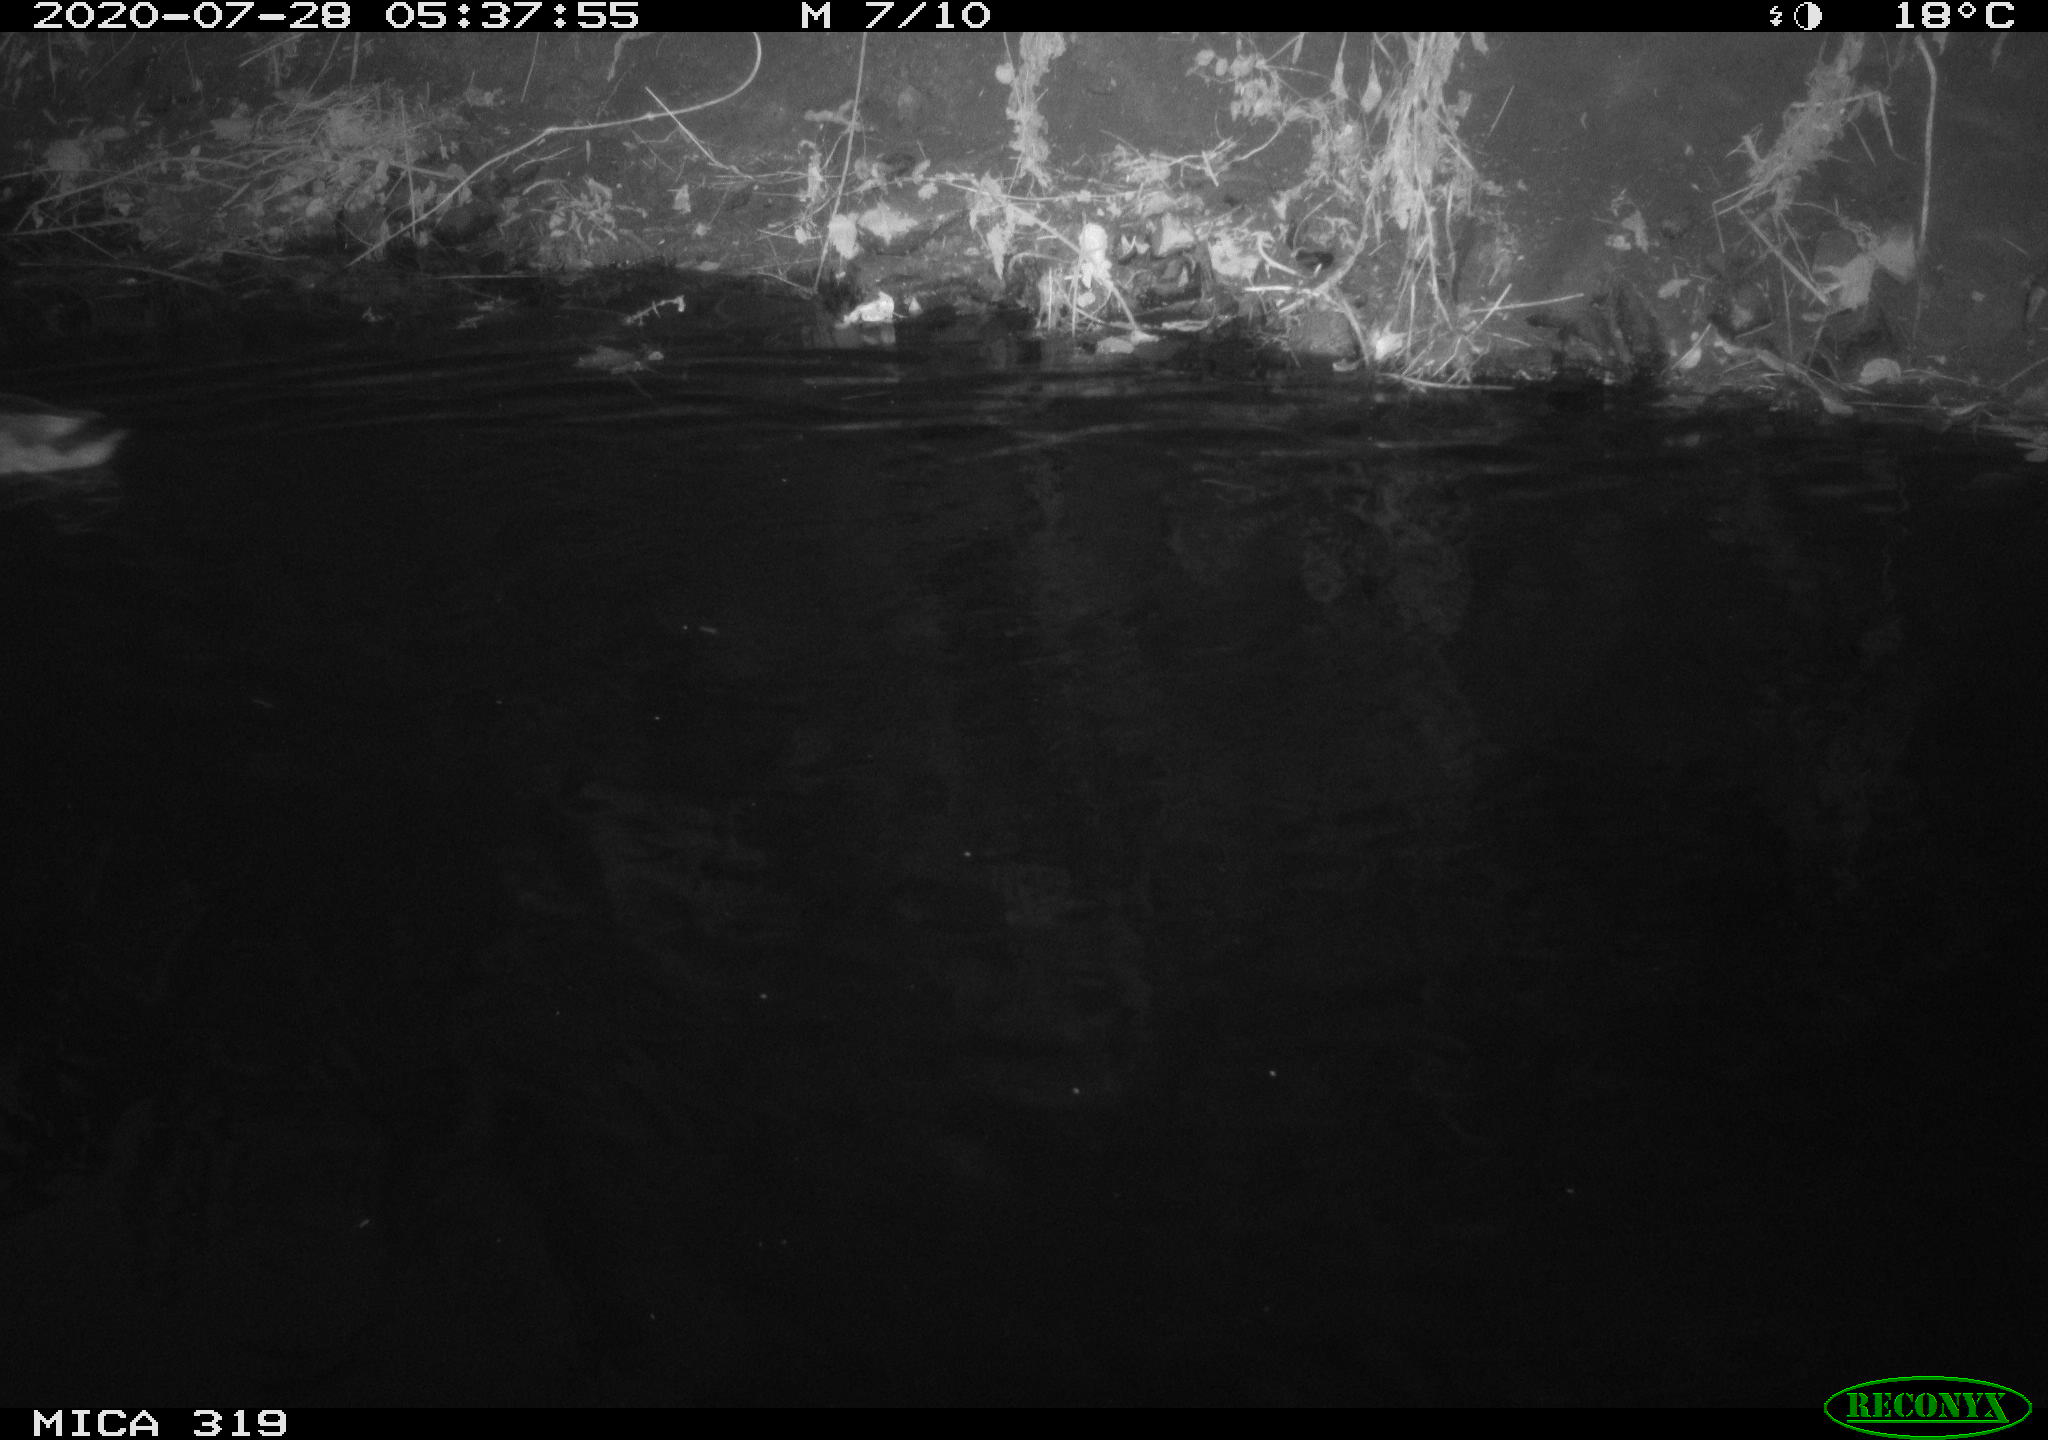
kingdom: Animalia
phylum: Chordata
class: Aves
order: Anseriformes
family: Anatidae
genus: Anas
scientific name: Anas platyrhynchos
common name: Mallard
